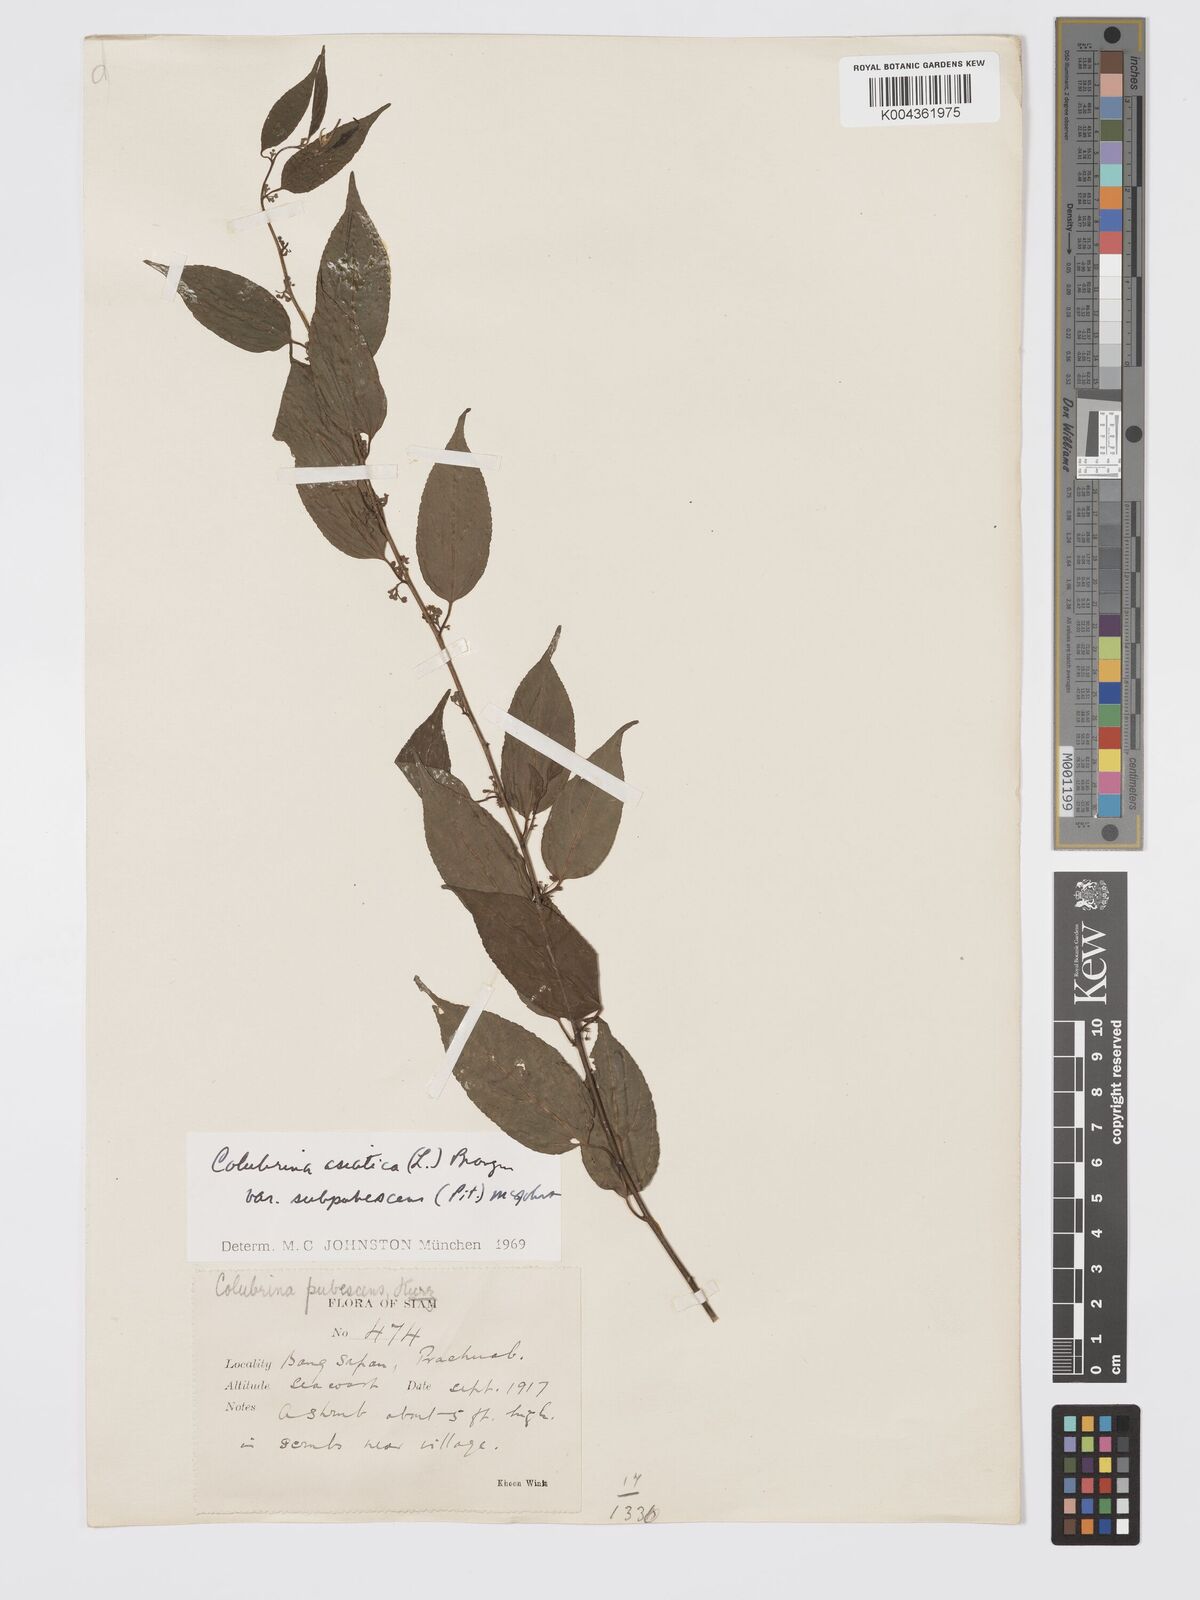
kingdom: Plantae
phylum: Tracheophyta
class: Magnoliopsida
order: Rosales
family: Rhamnaceae
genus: Colubrina
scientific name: Colubrina javanica
